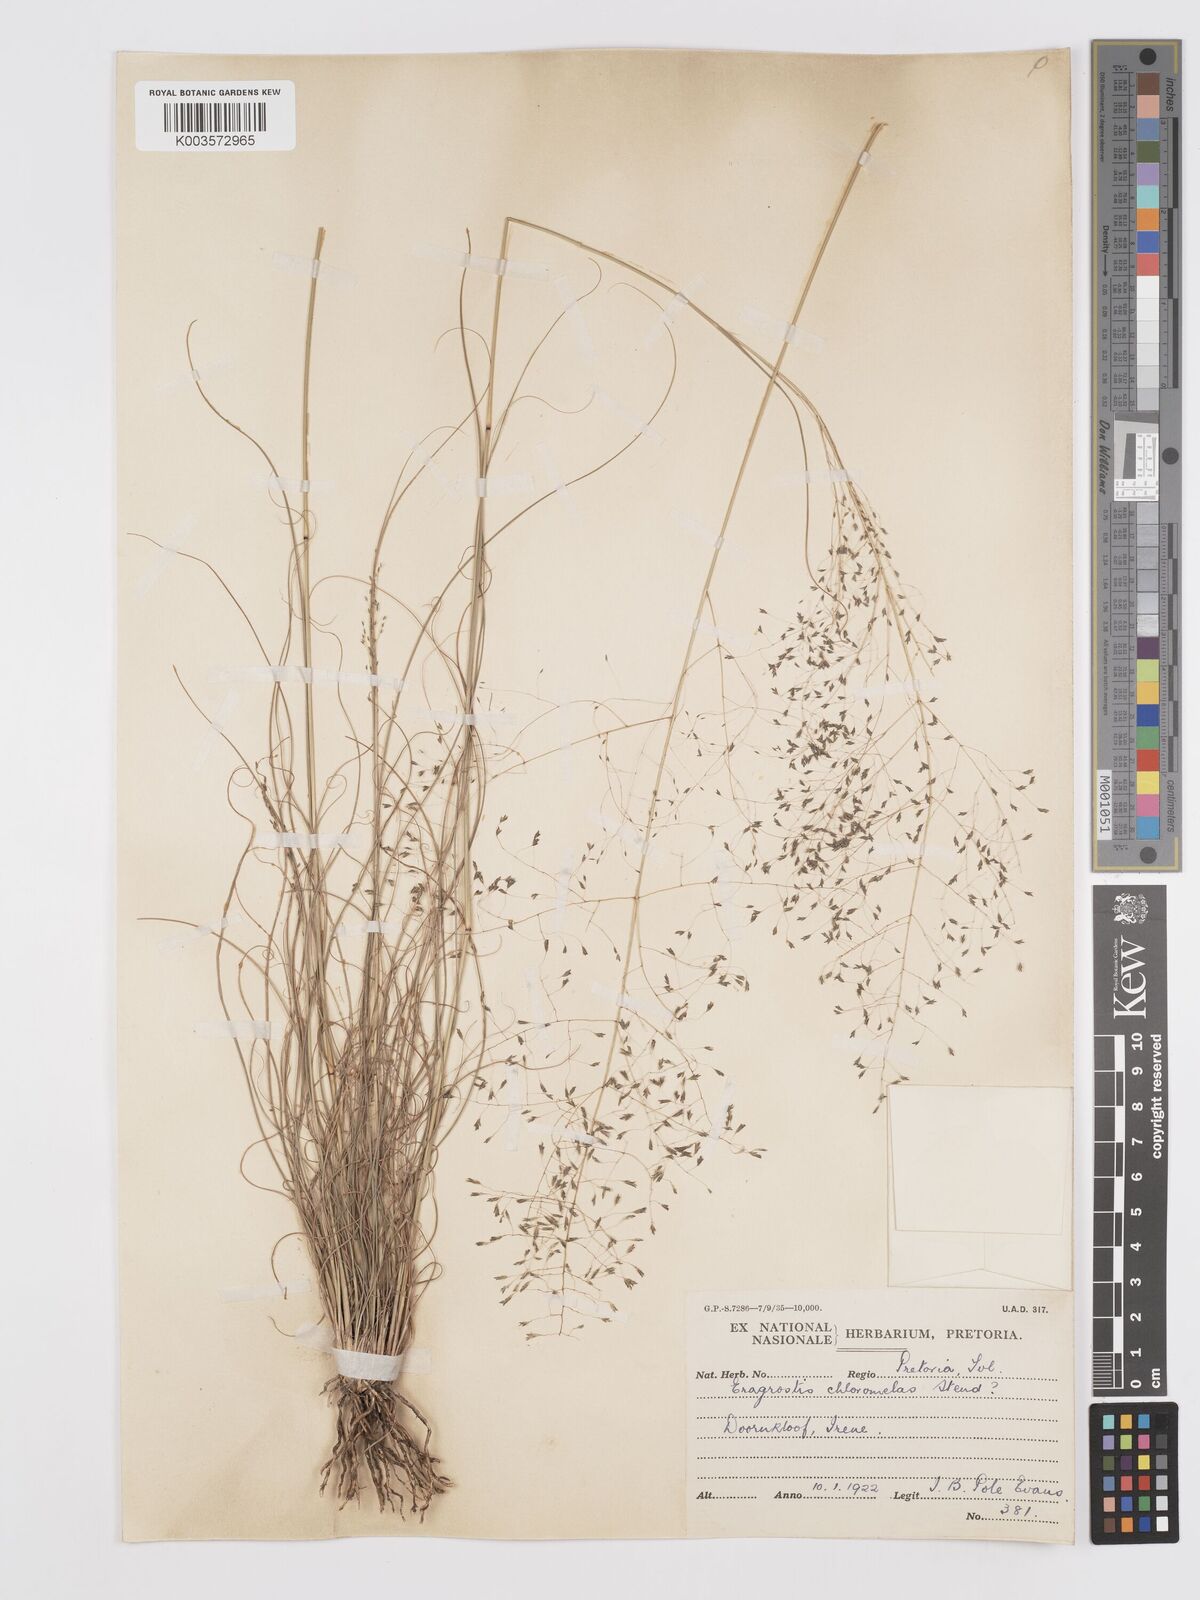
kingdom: Plantae
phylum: Tracheophyta
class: Liliopsida
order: Poales
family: Poaceae
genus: Eragrostis
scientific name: Eragrostis curvula
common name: African love-grass
